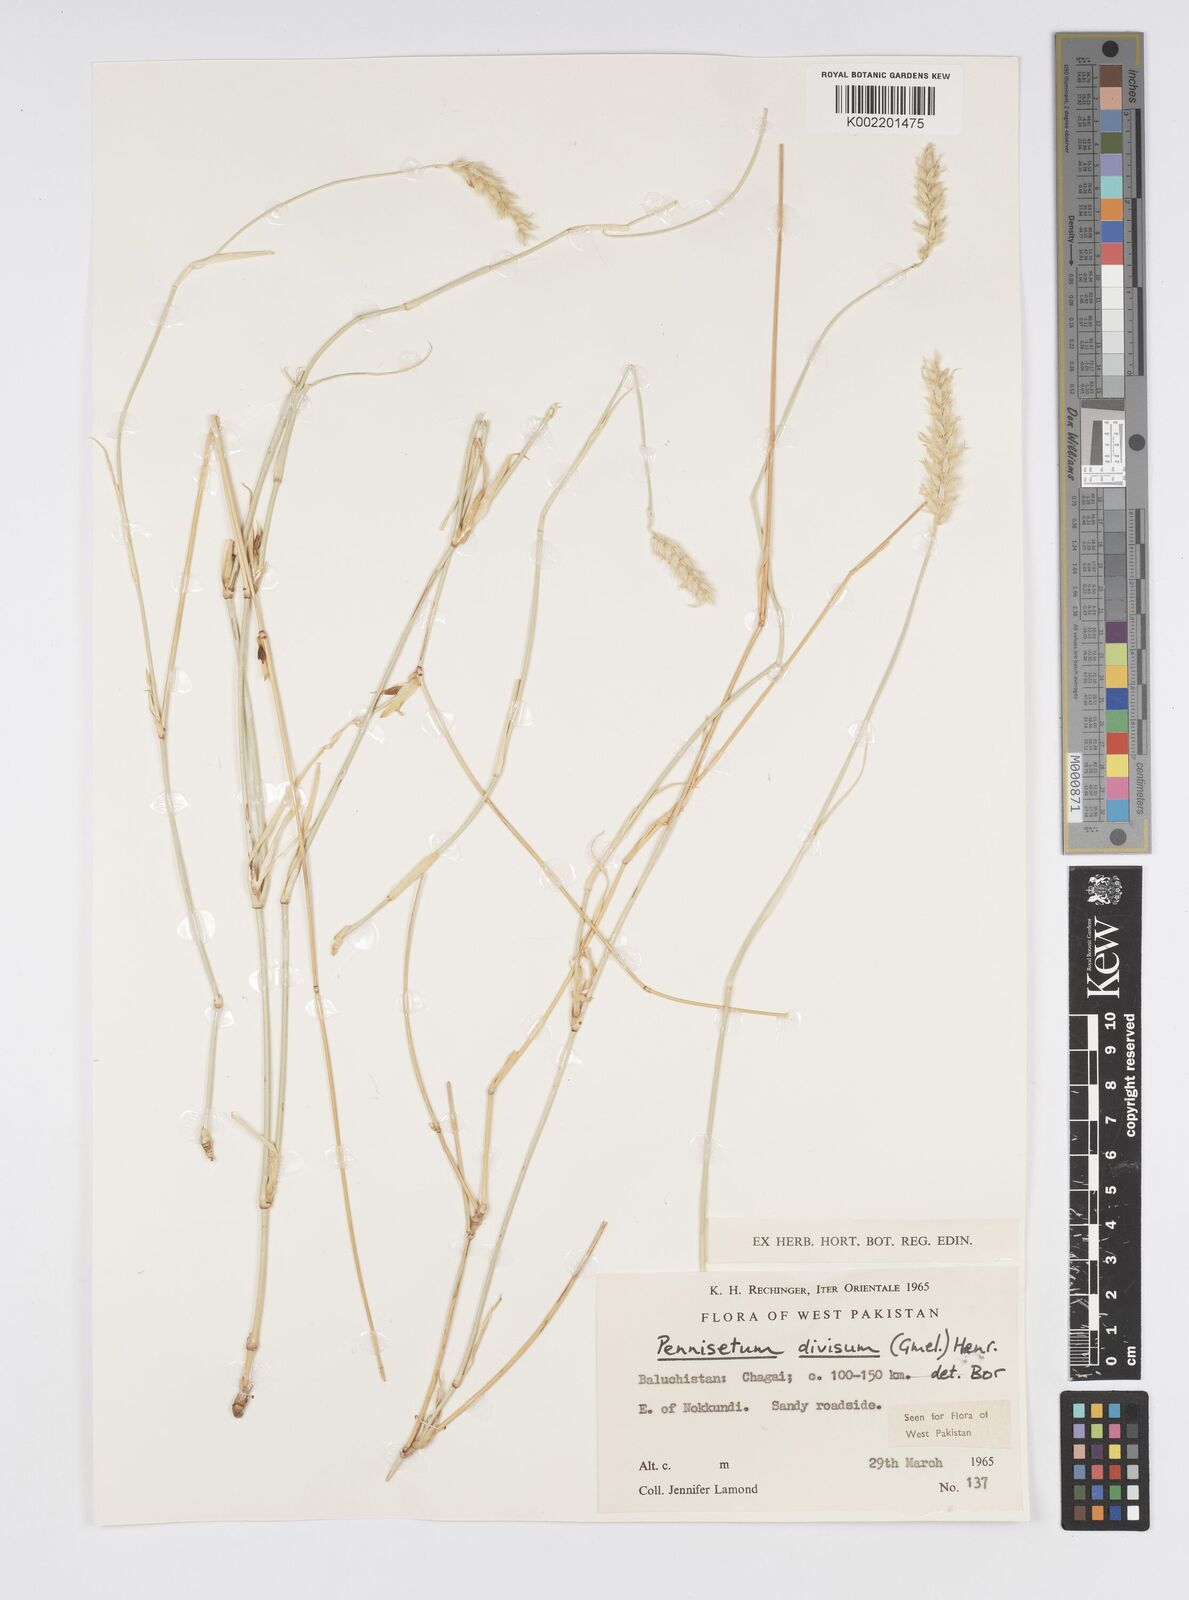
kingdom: Plantae
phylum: Tracheophyta
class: Liliopsida
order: Poales
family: Poaceae
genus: Cenchrus
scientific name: Cenchrus divisus
